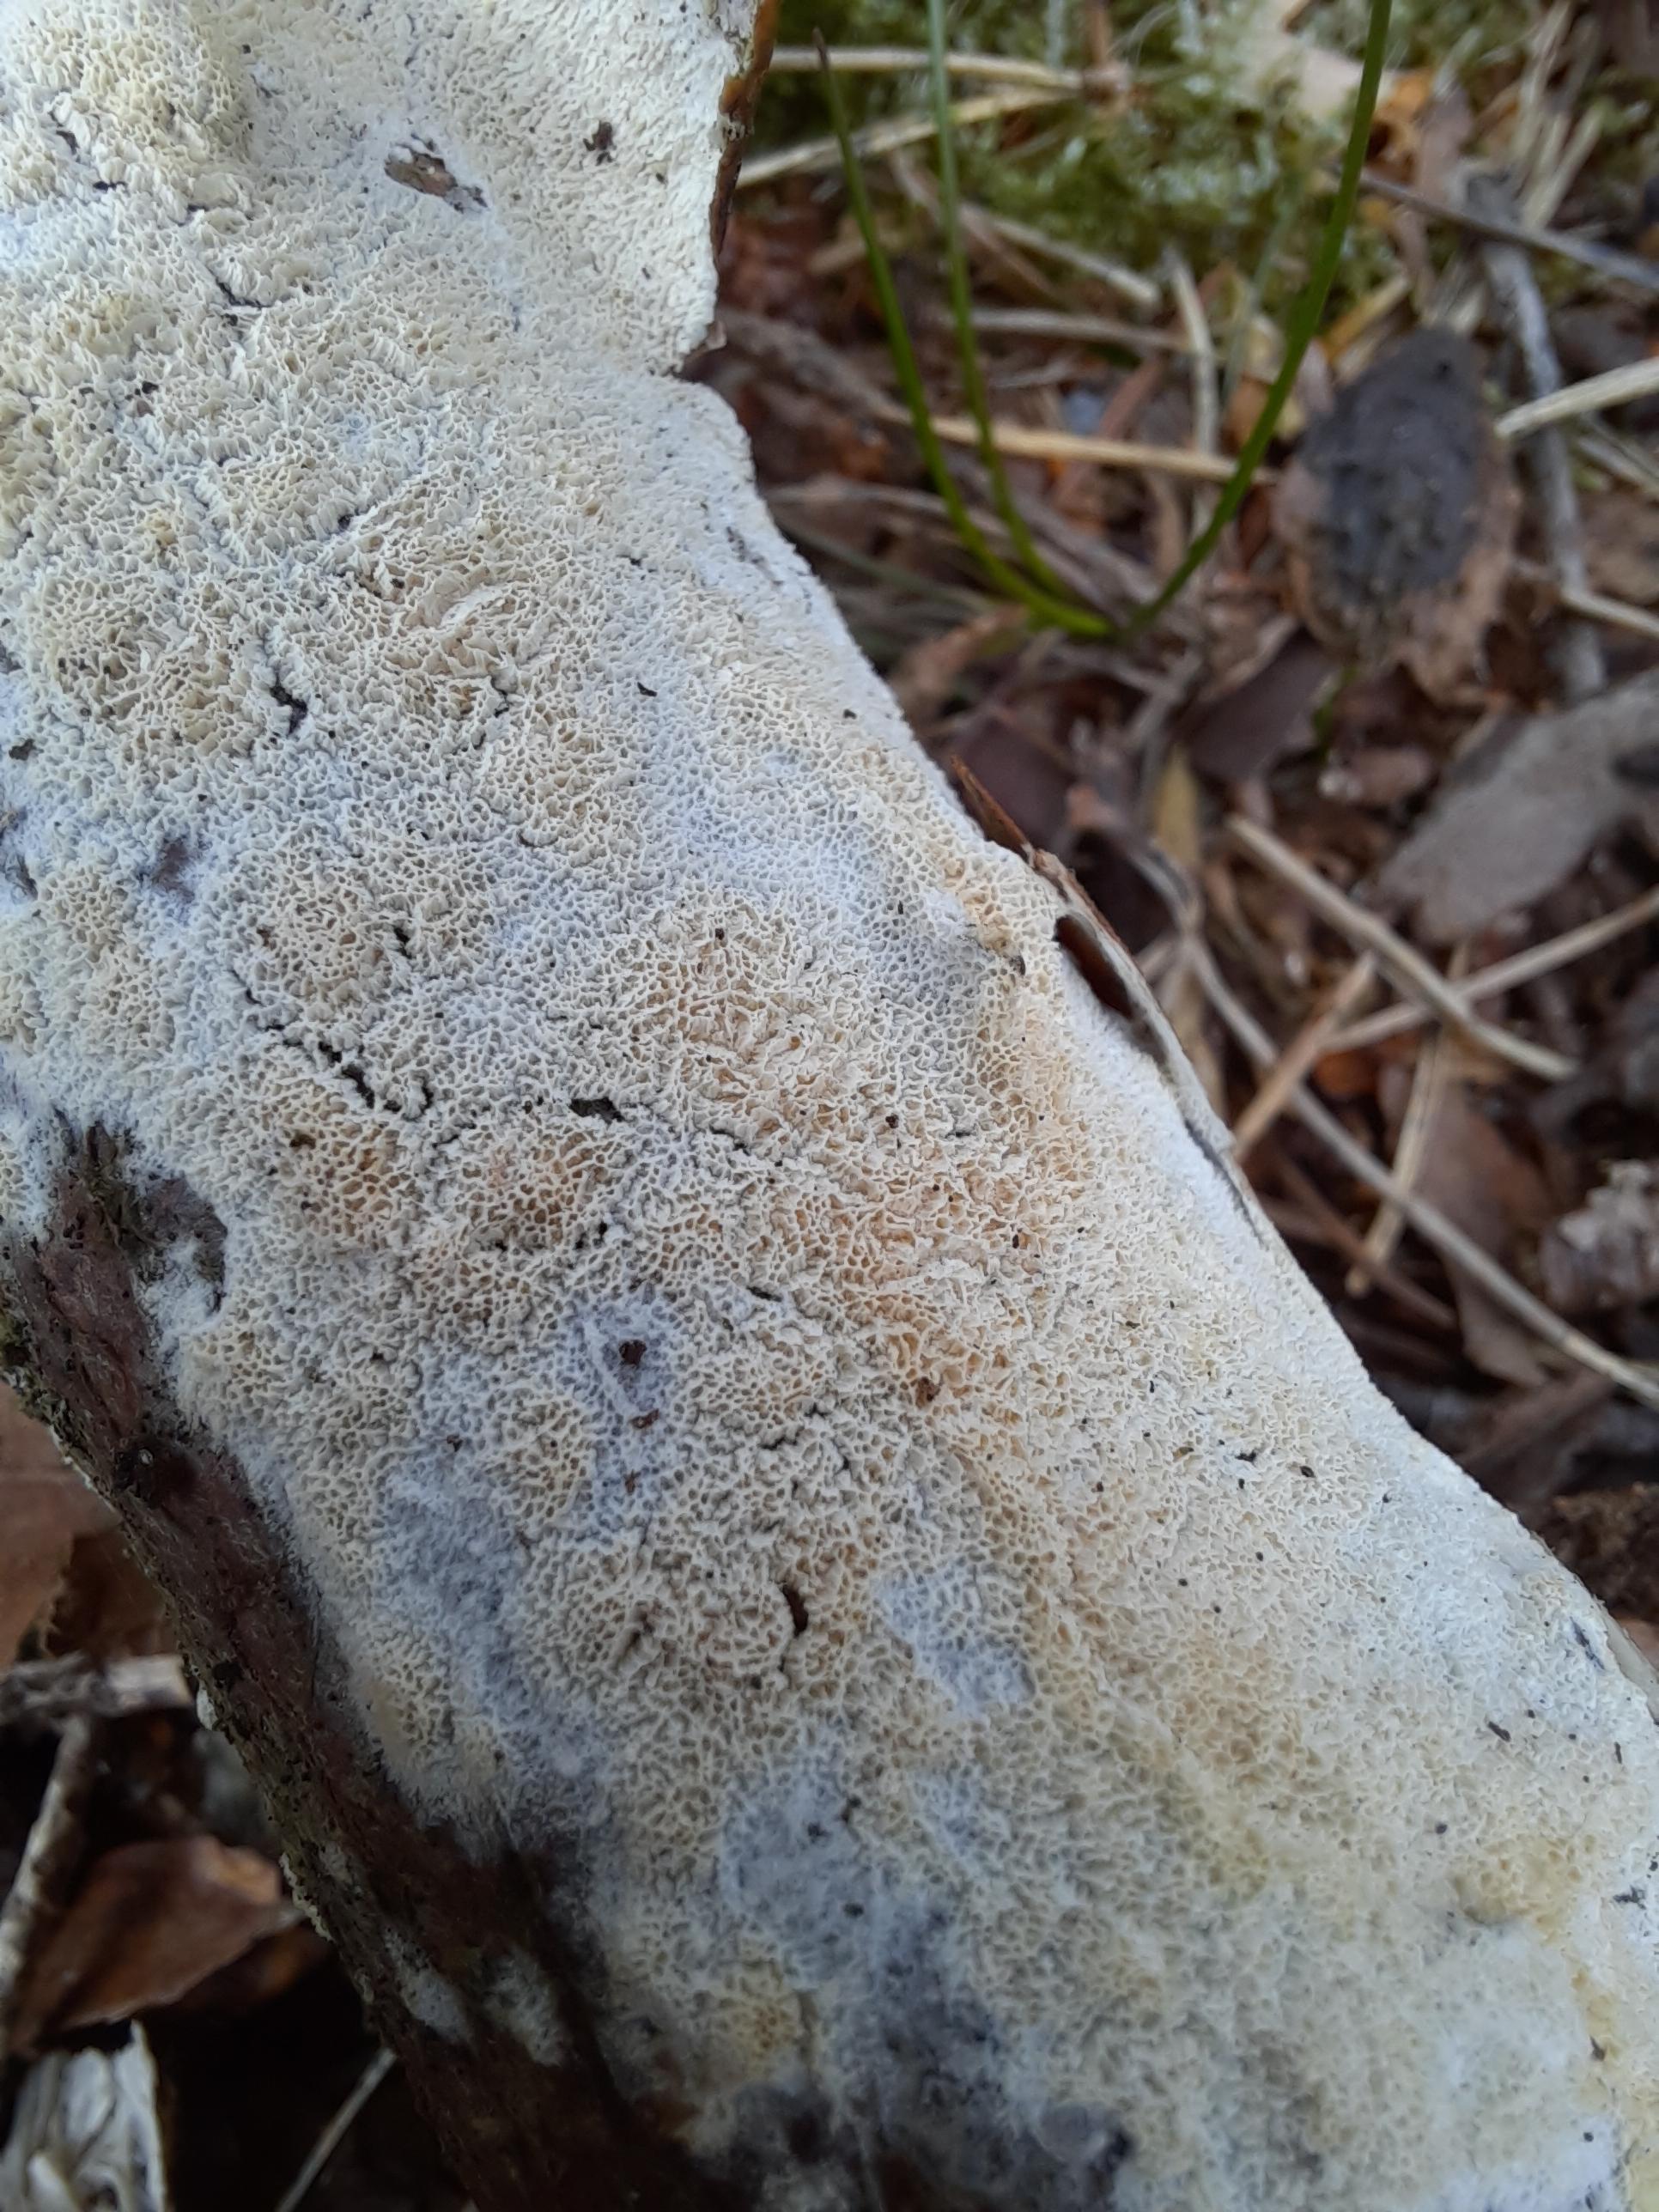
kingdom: Fungi
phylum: Basidiomycota
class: Agaricomycetes
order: Hymenochaetales
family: Schizoporaceae
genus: Xylodon
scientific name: Xylodon subtropicus
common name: labyrint-tandsvamp
